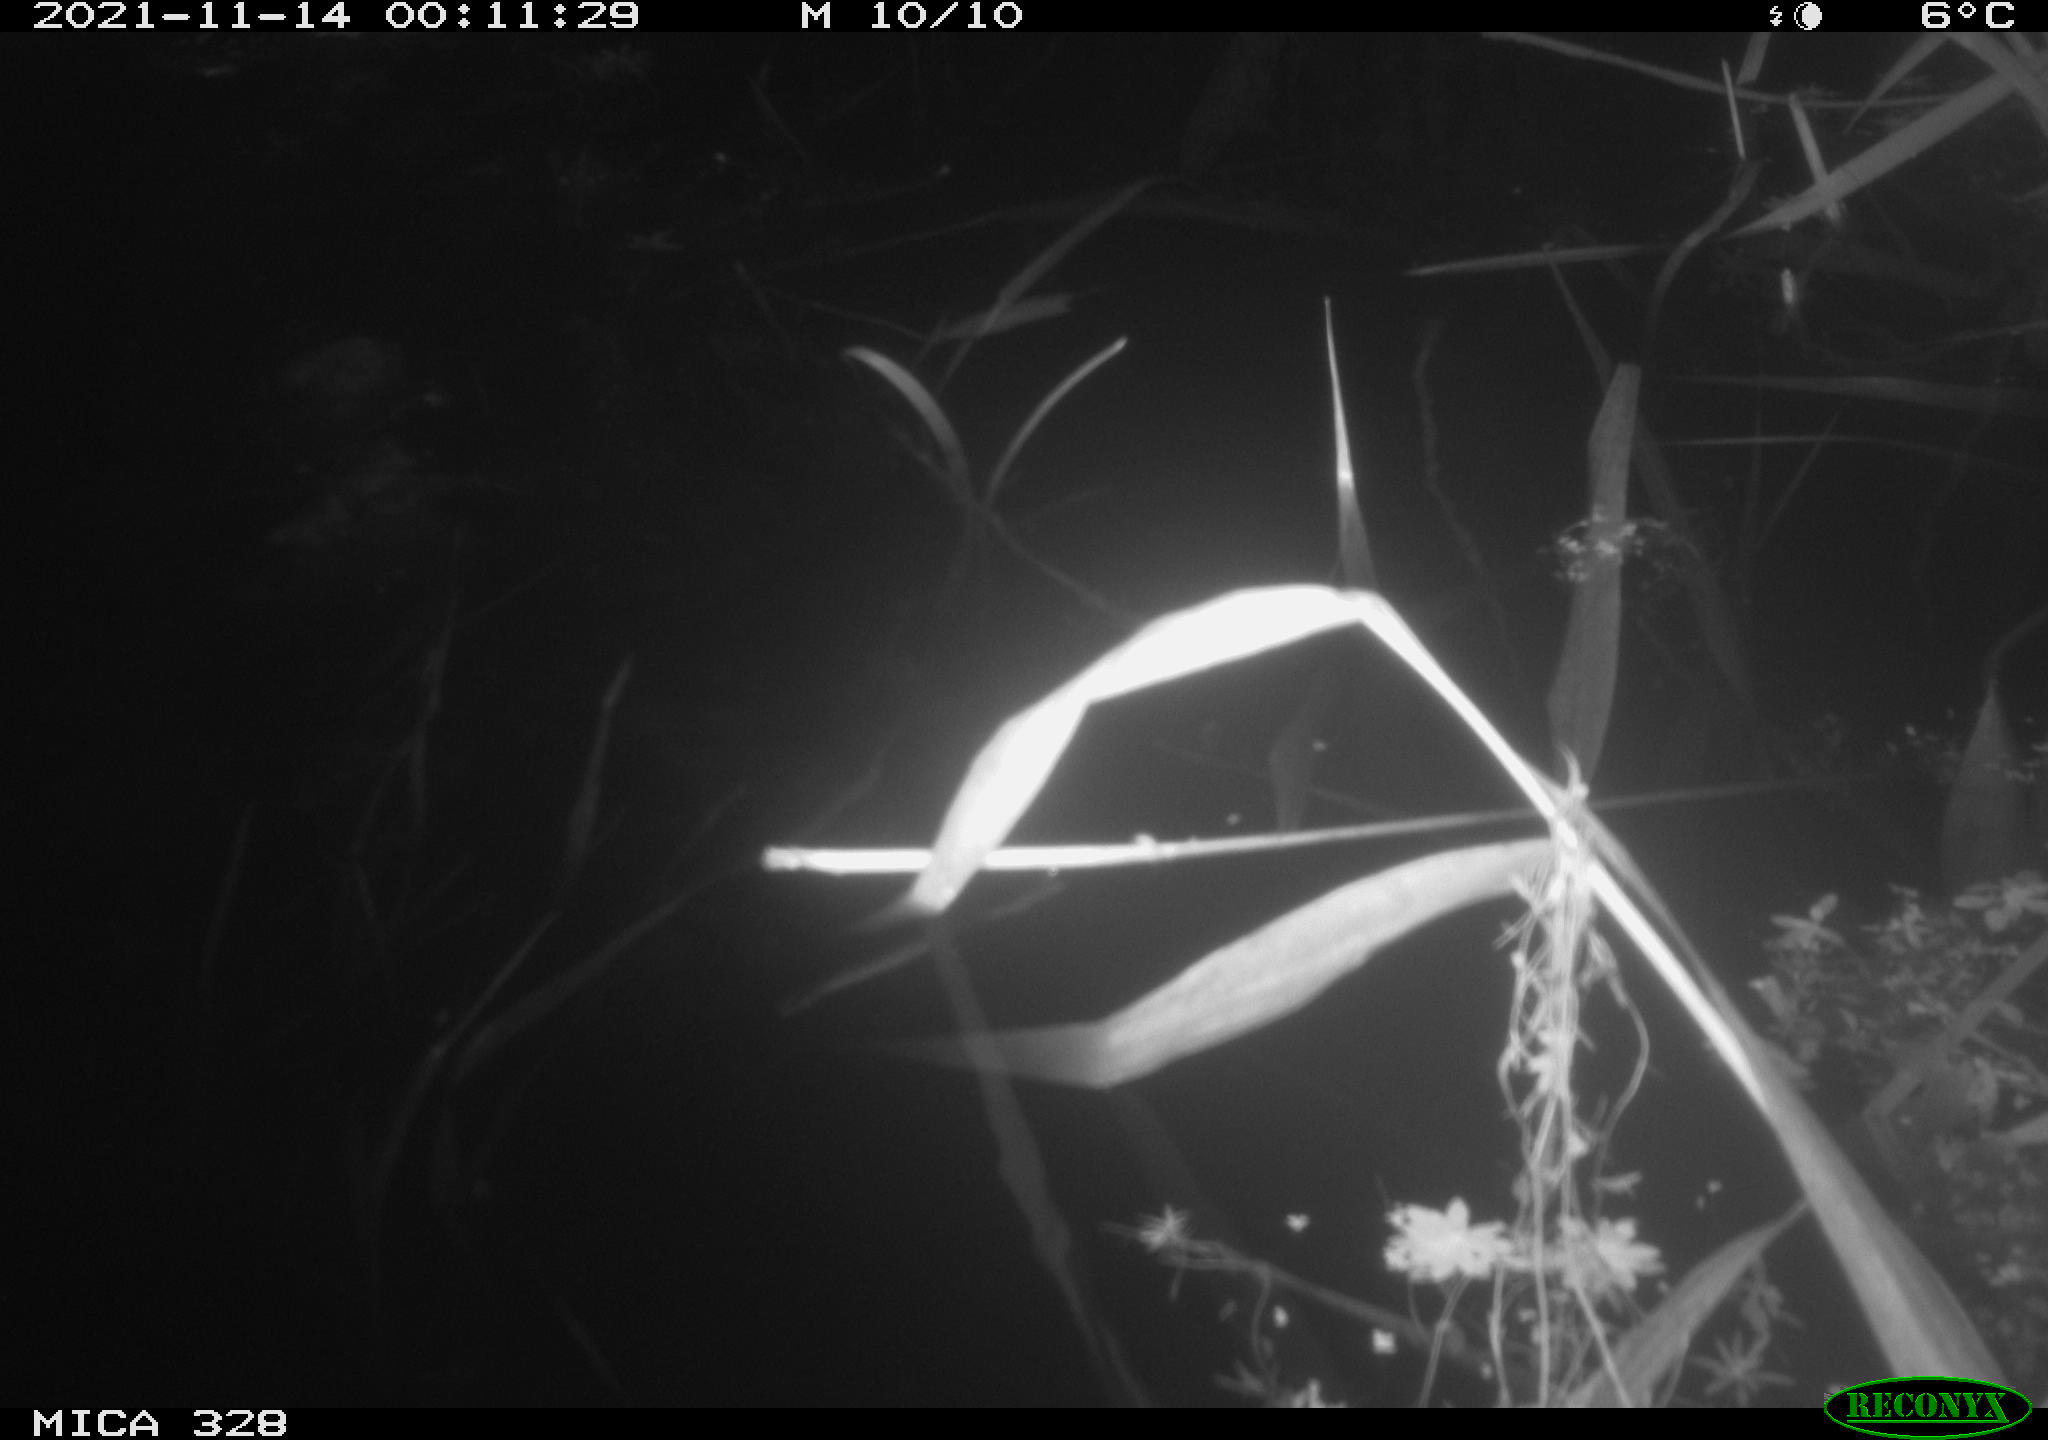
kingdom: Animalia
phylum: Chordata
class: Mammalia
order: Rodentia
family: Cricetidae
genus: Ondatra
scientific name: Ondatra zibethicus
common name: Muskrat
